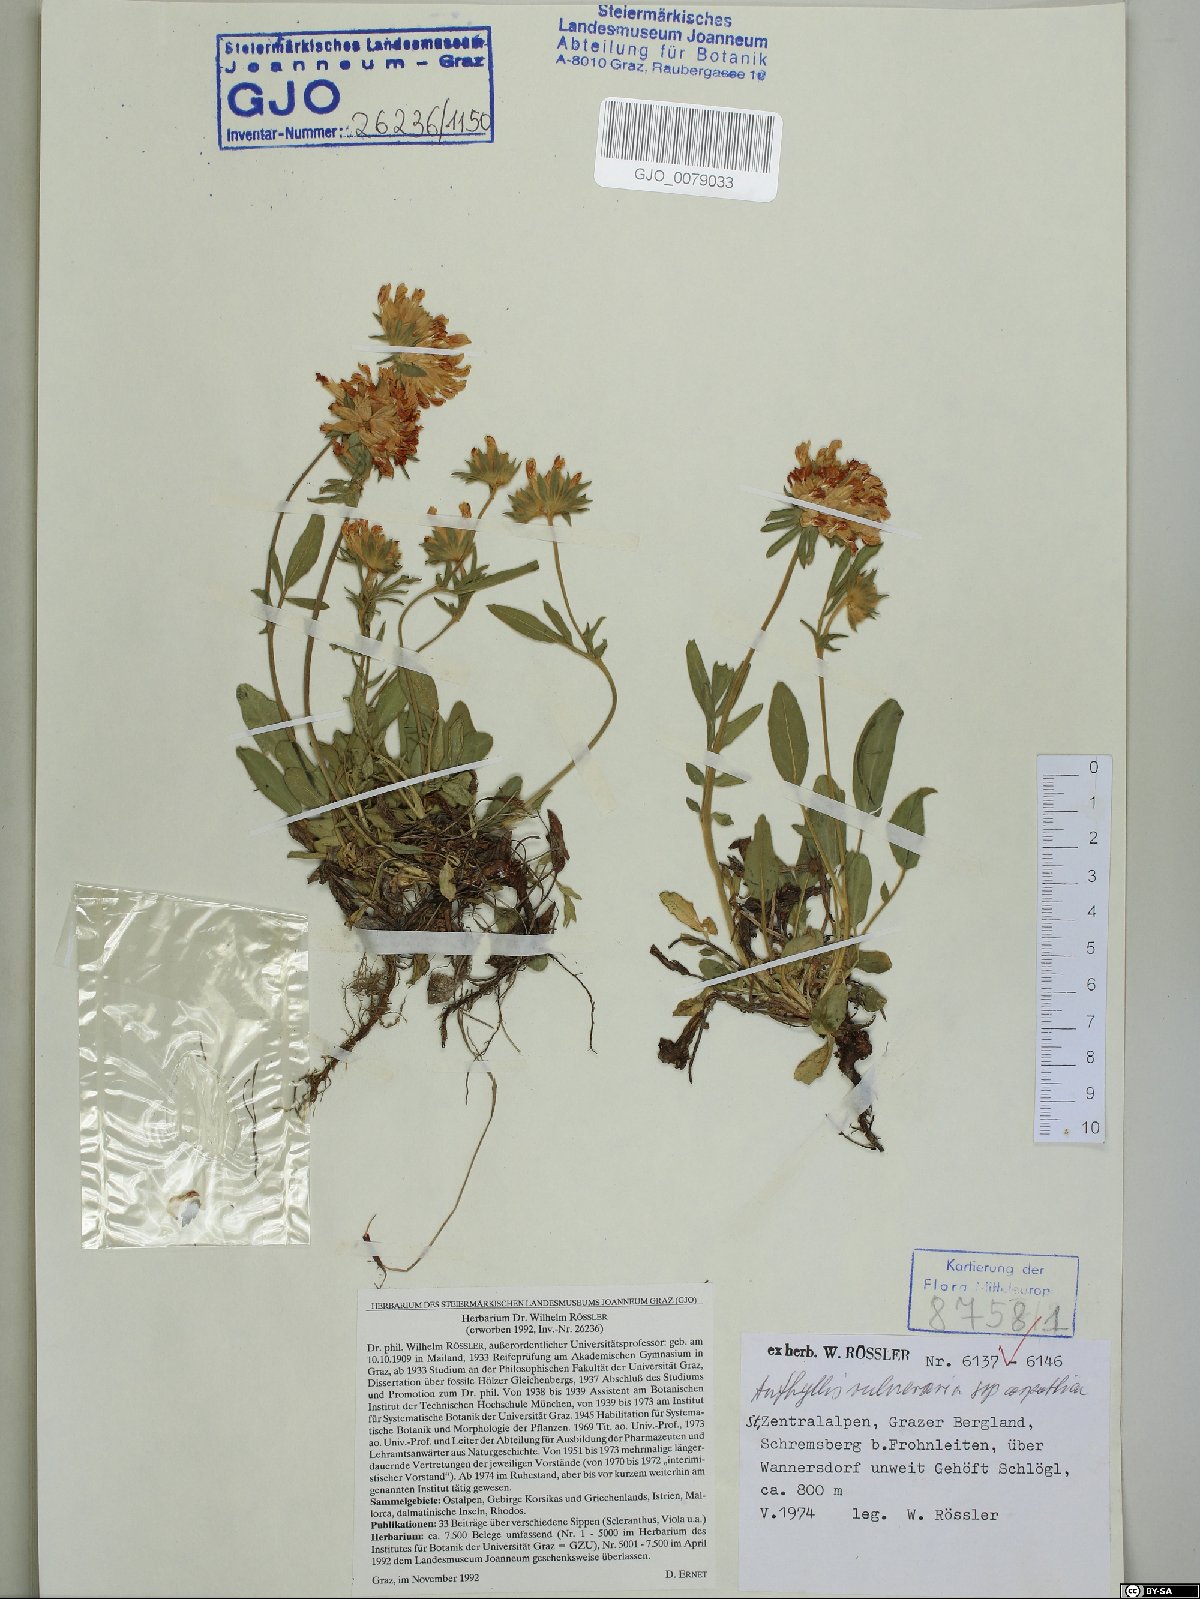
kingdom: Plantae
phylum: Tracheophyta
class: Magnoliopsida
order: Fabales
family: Fabaceae
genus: Anthyllis
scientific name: Anthyllis vulneraria
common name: Kidney vetch
